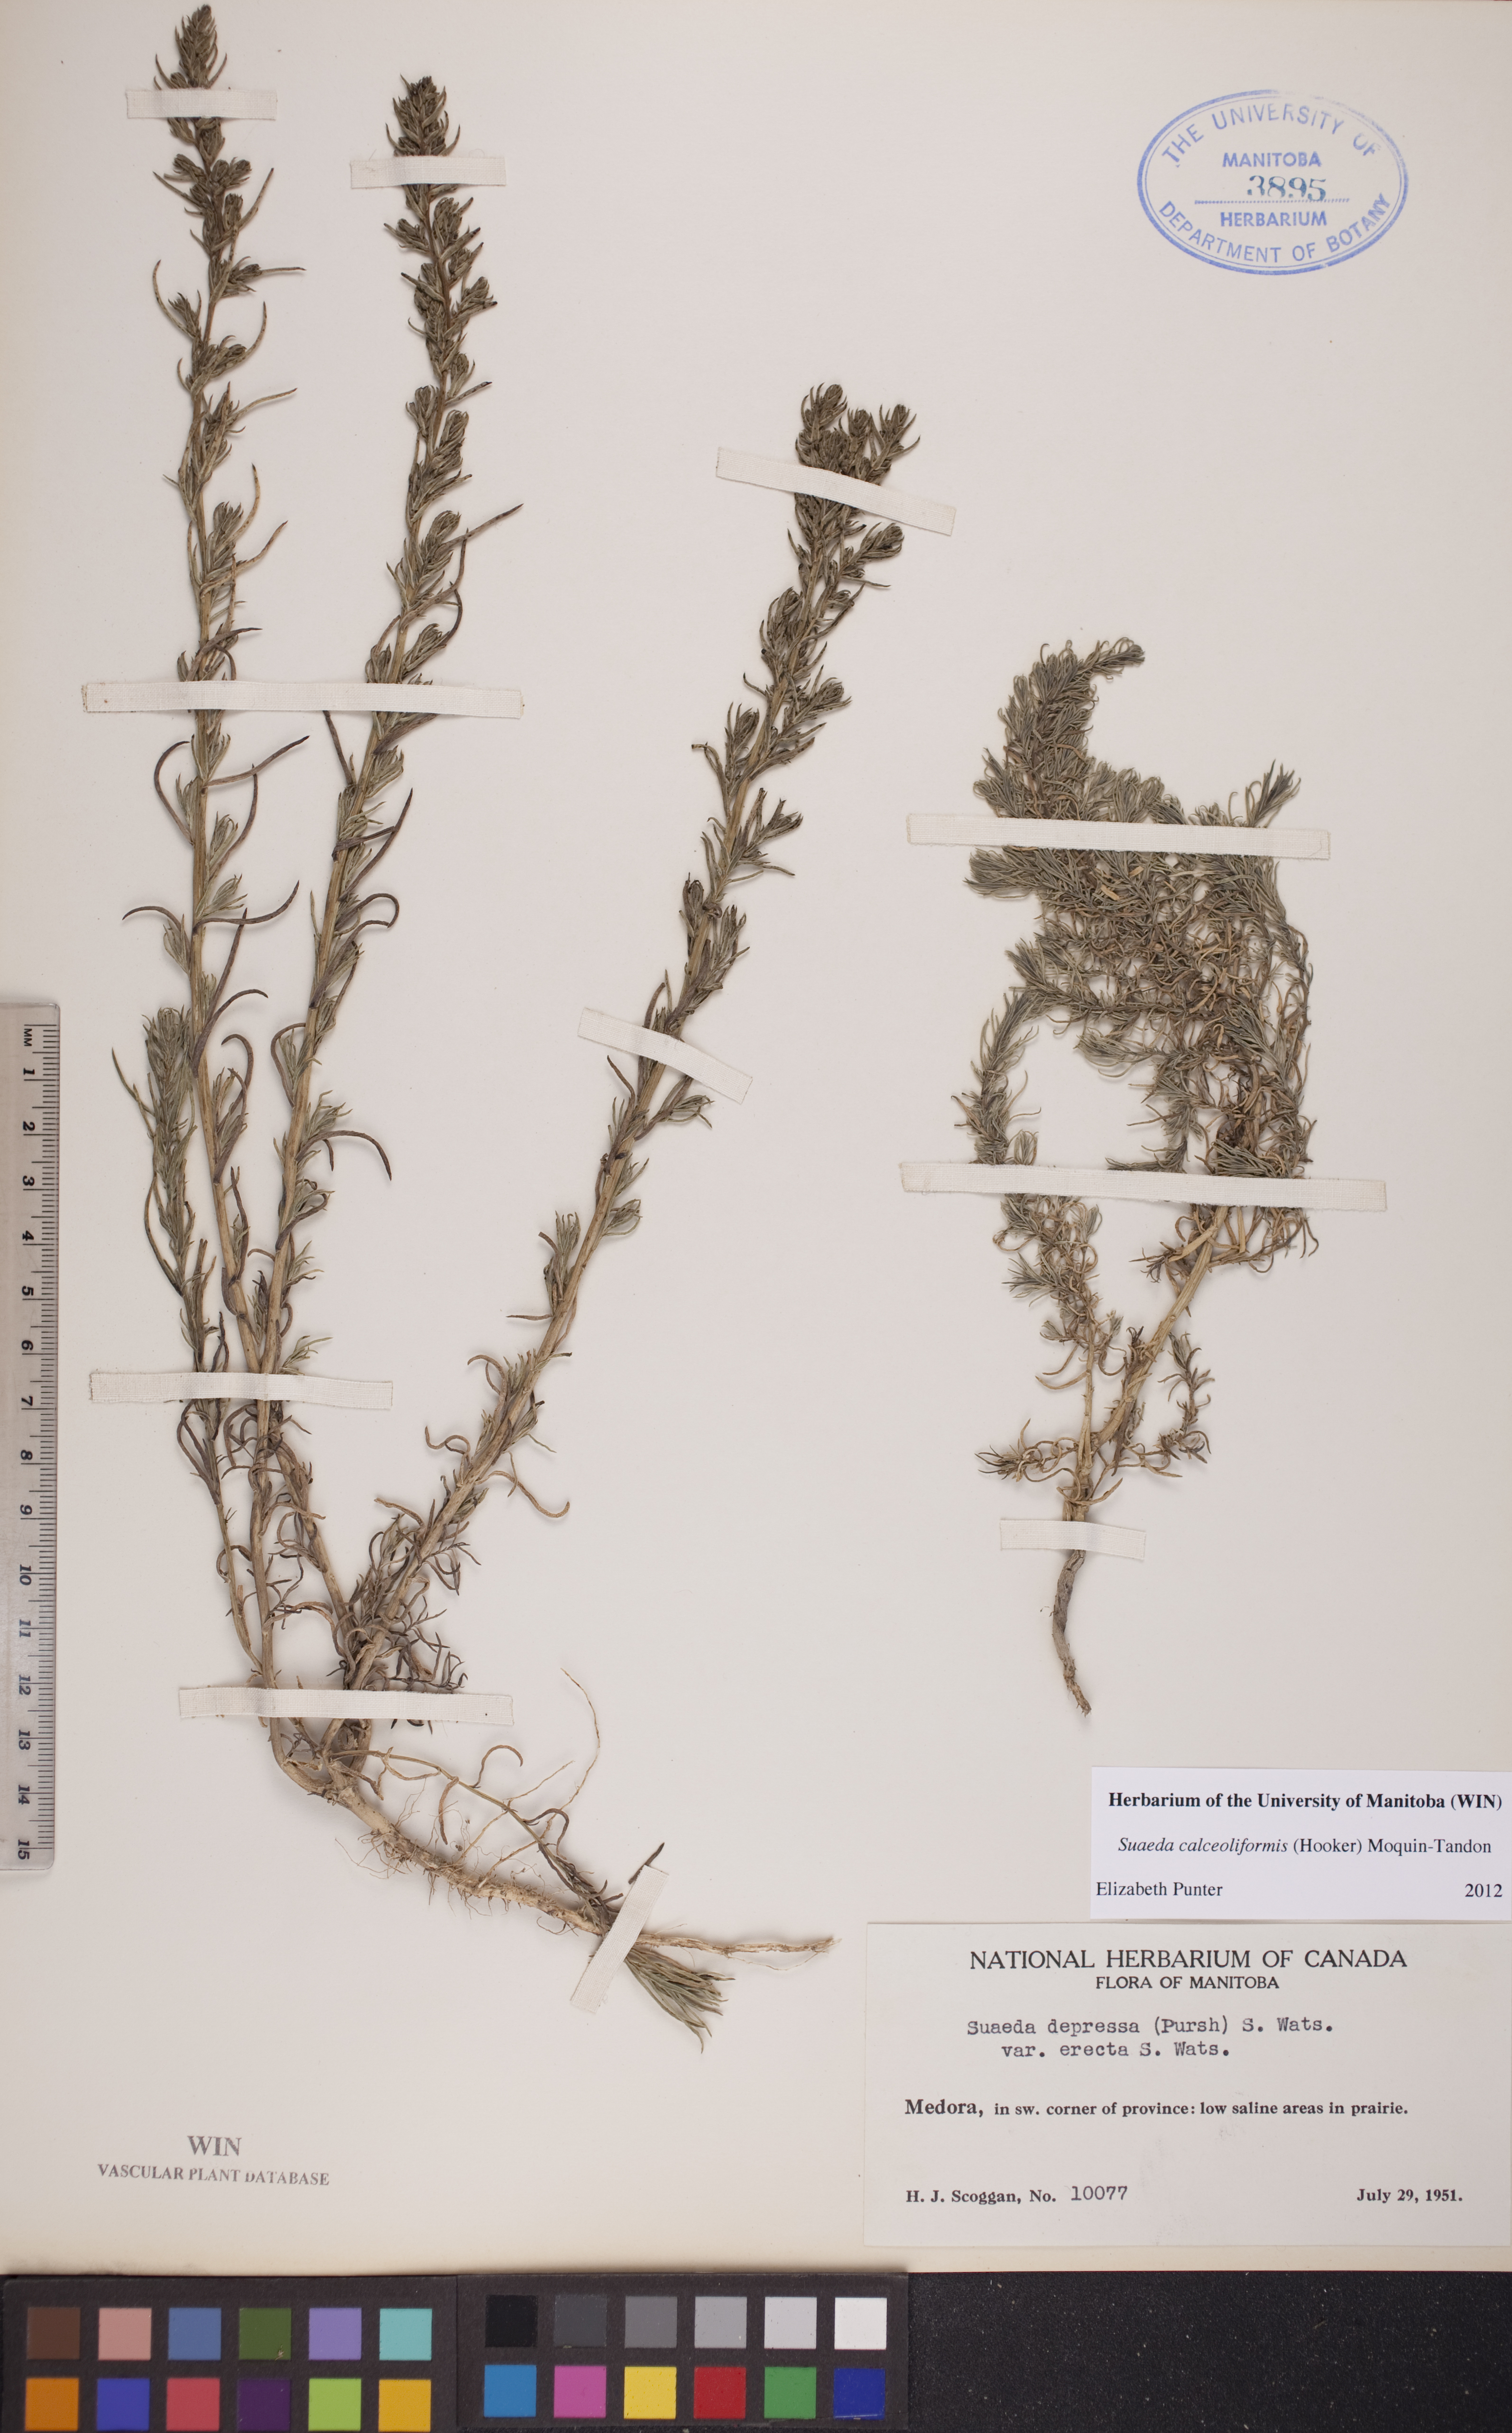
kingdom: Plantae
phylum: Tracheophyta
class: Magnoliopsida
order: Caryophyllales
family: Amaranthaceae
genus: Suaeda
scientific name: Suaeda calceoliformis
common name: Pursh's seepweed
